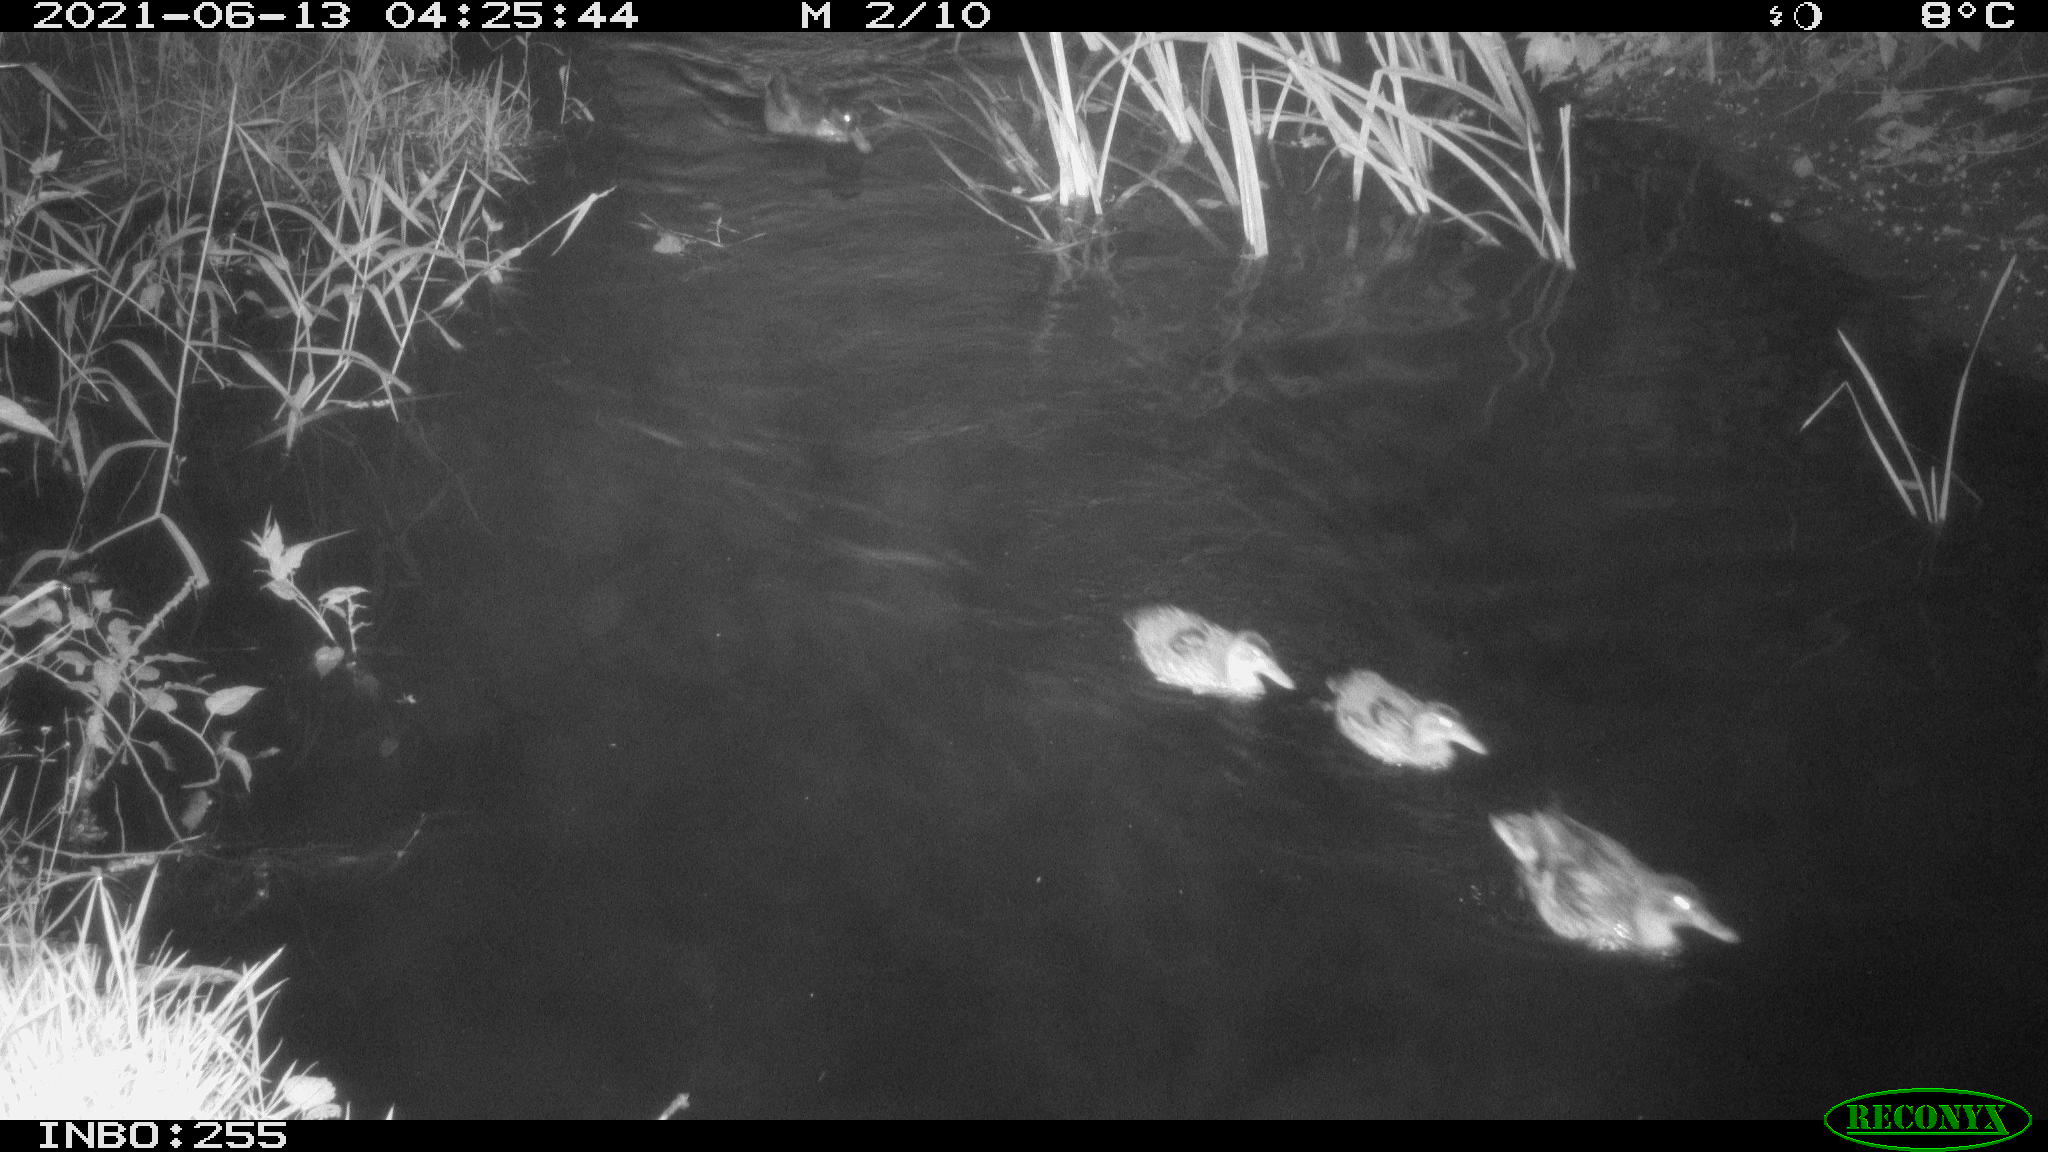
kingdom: Animalia
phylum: Chordata
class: Aves
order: Anseriformes
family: Anatidae
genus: Anas
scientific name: Anas
